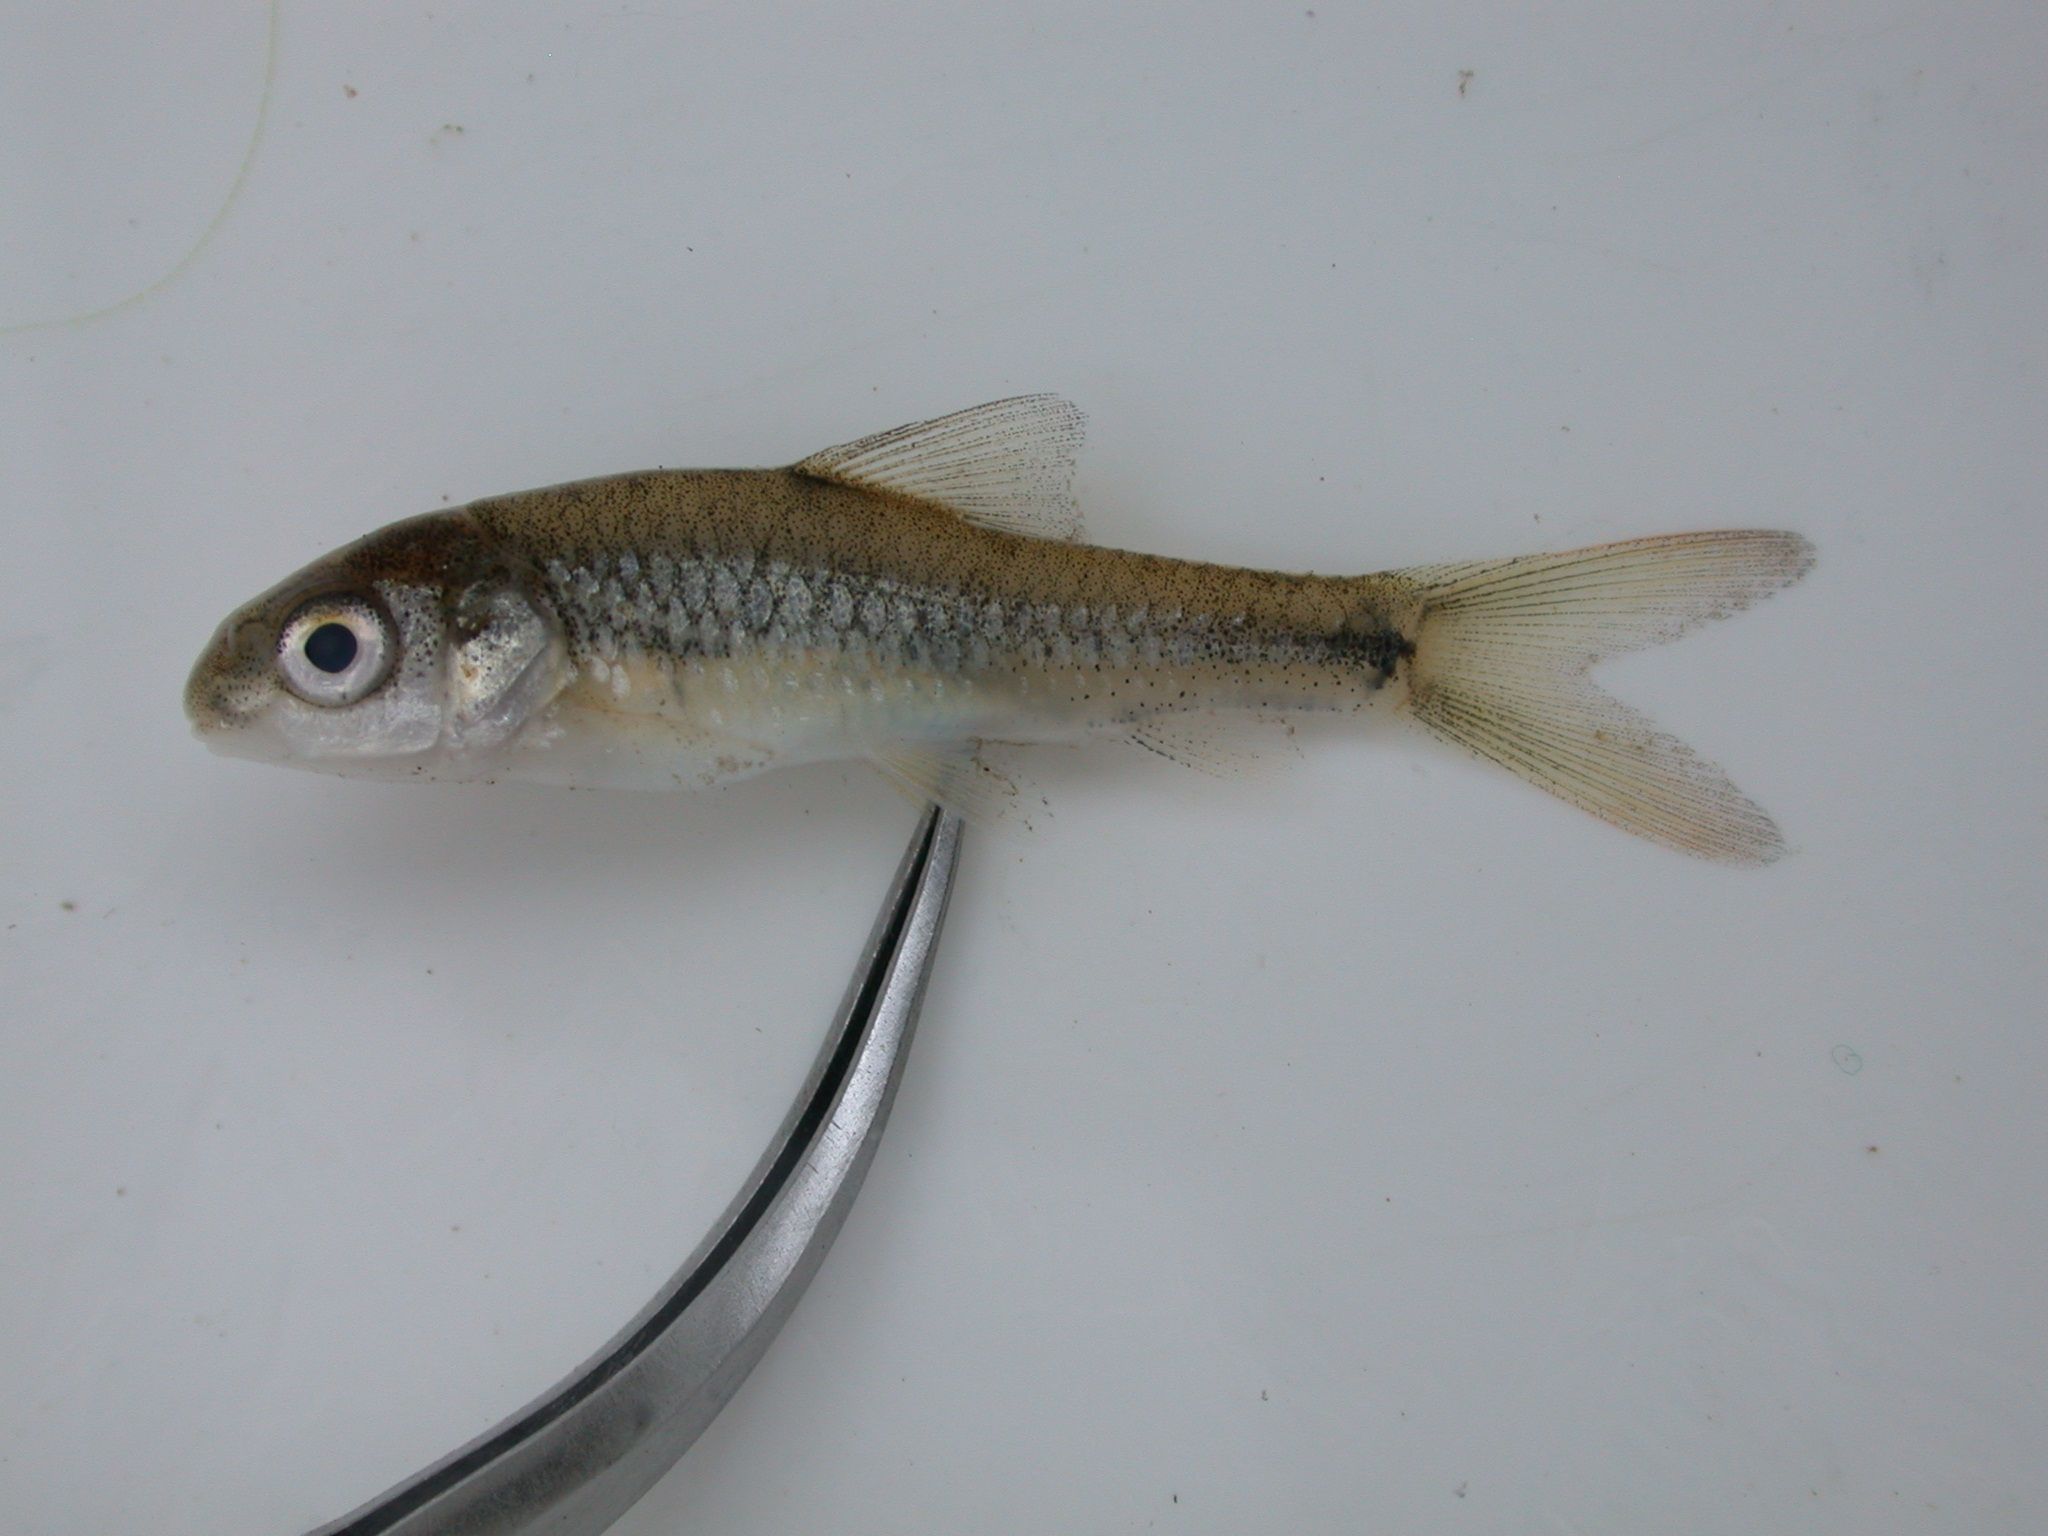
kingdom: Animalia
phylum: Chordata
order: Cypriniformes
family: Cyprinidae
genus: Labeobarbus
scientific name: Labeobarbus pungweensis
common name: Pungwe chiselmouth
